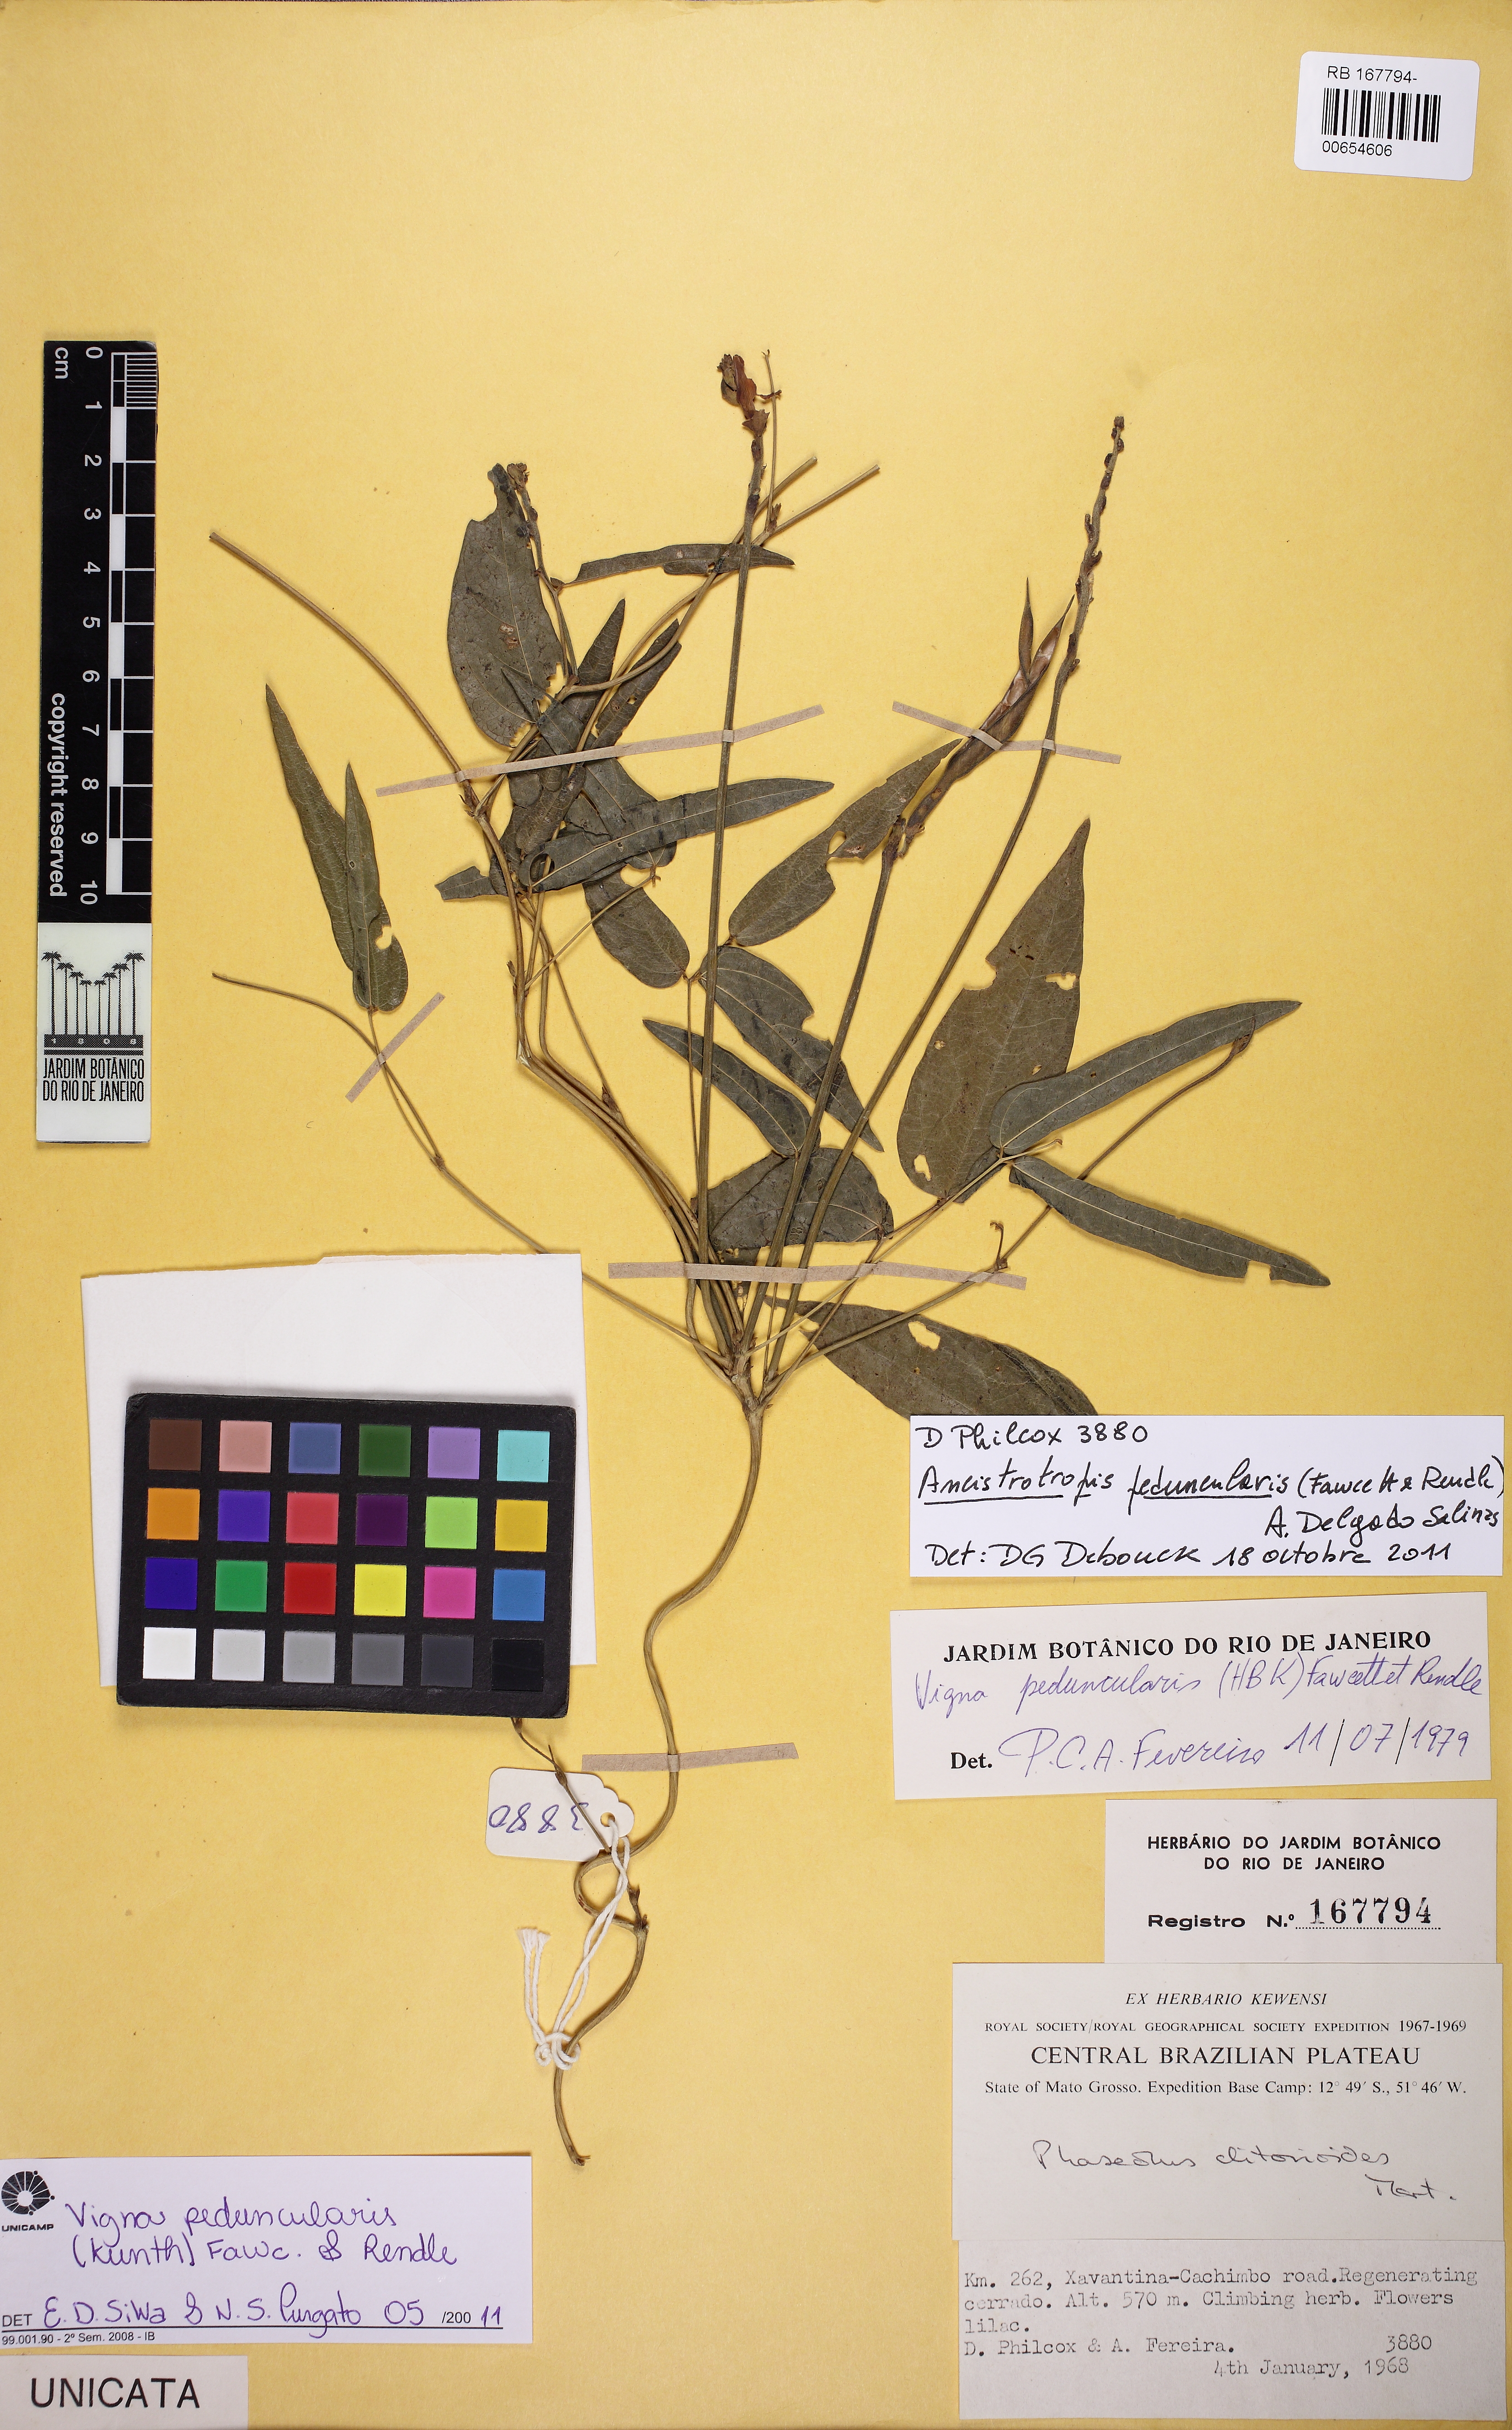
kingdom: Plantae
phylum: Tracheophyta
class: Magnoliopsida
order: Fabales
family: Fabaceae
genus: Ancistrotropis
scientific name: Ancistrotropis clitorioides
